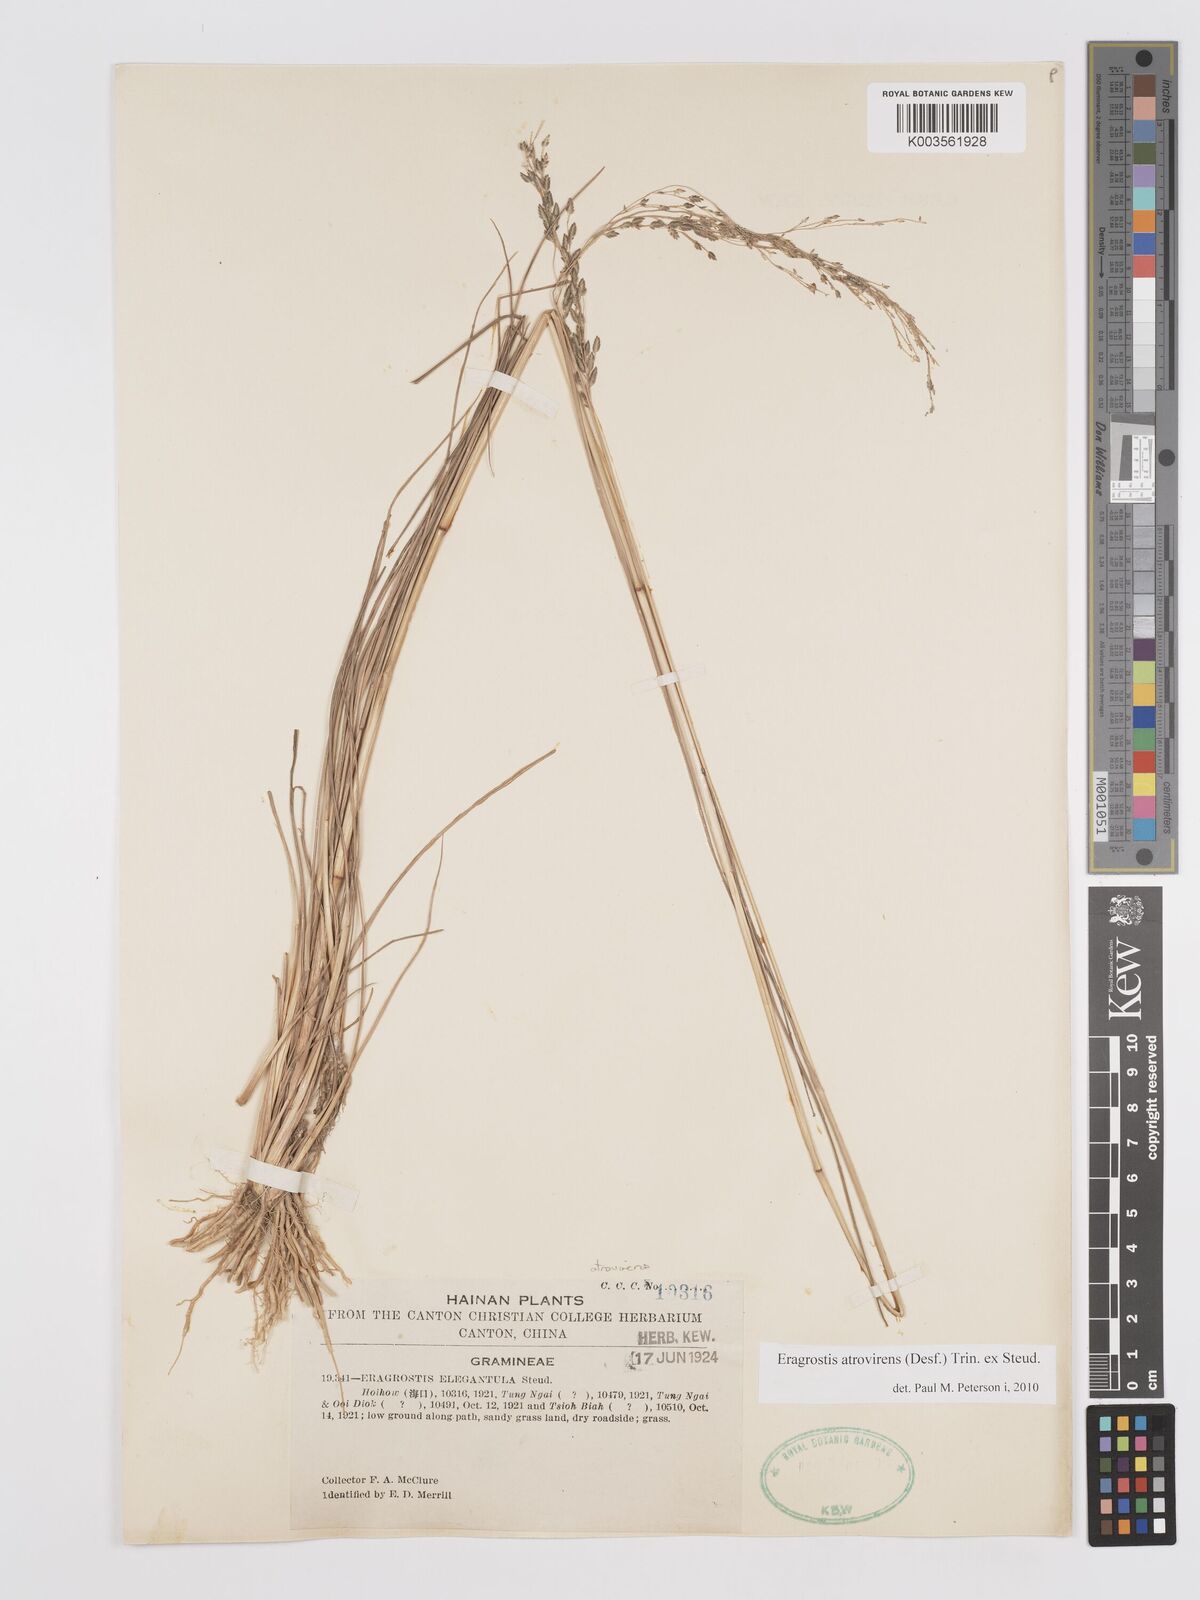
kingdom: Plantae
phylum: Tracheophyta
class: Liliopsida
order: Poales
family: Poaceae
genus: Eragrostis
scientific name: Eragrostis atrovirens
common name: Thalia lovegrass
